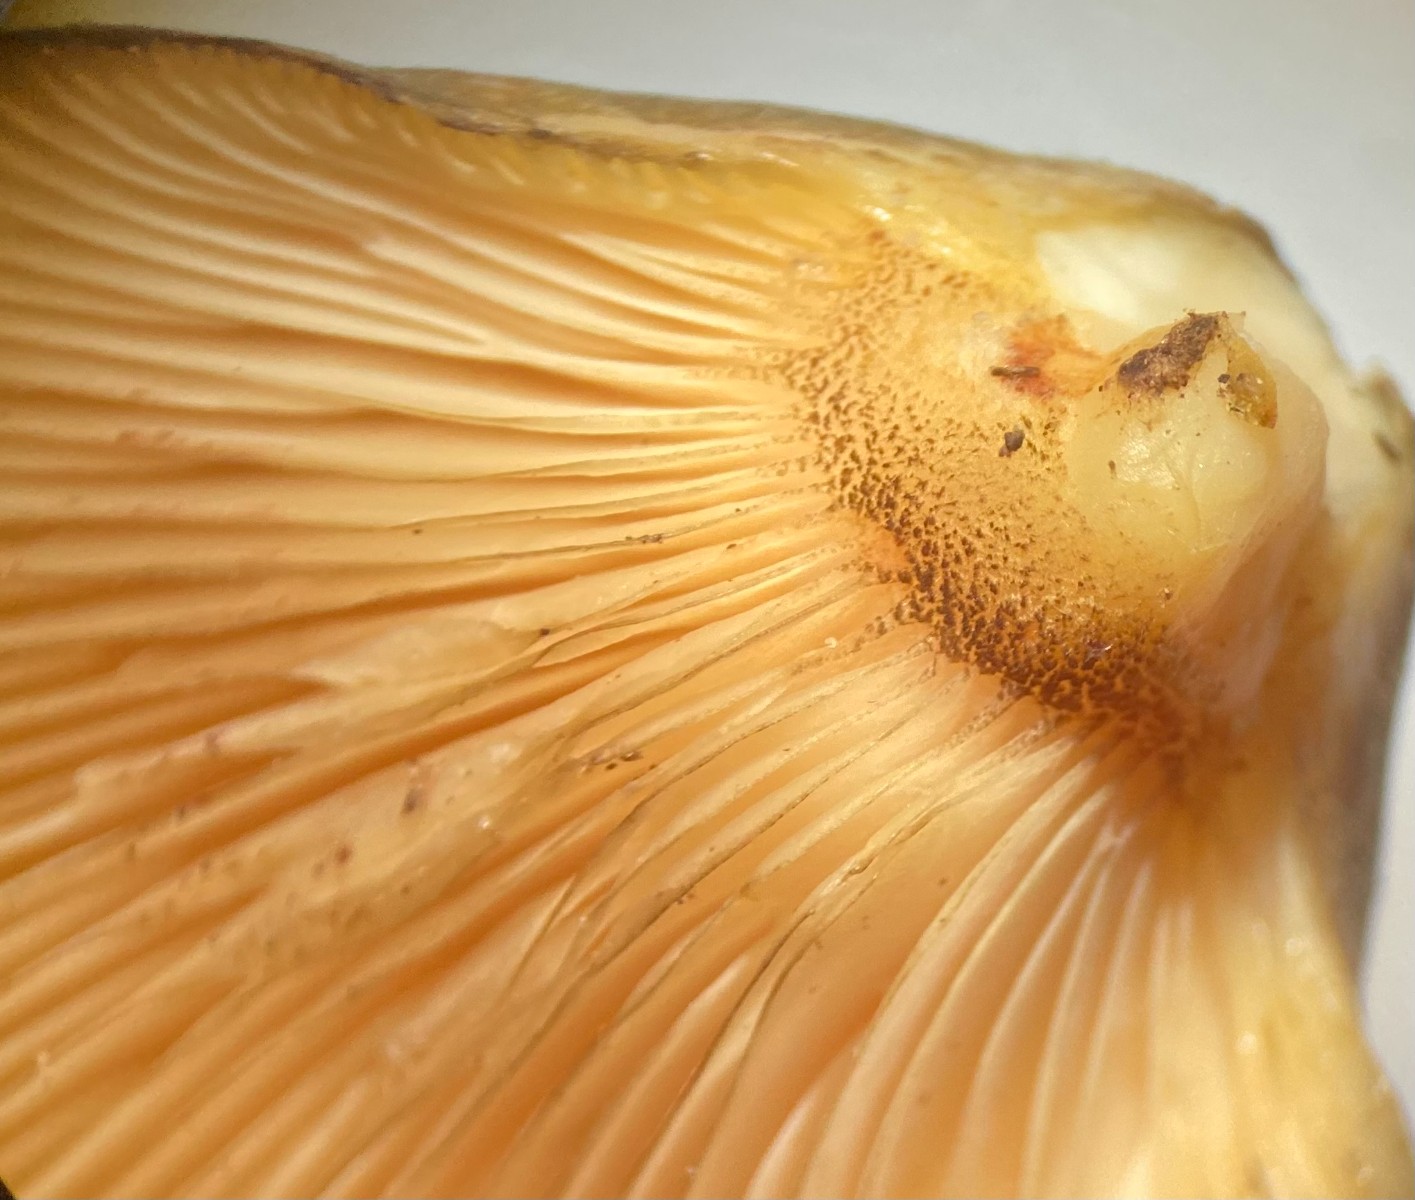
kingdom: Fungi
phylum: Basidiomycota
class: Agaricomycetes
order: Agaricales
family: Sarcomyxaceae
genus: Sarcomyxa
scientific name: Sarcomyxa serotina
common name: gummihat
